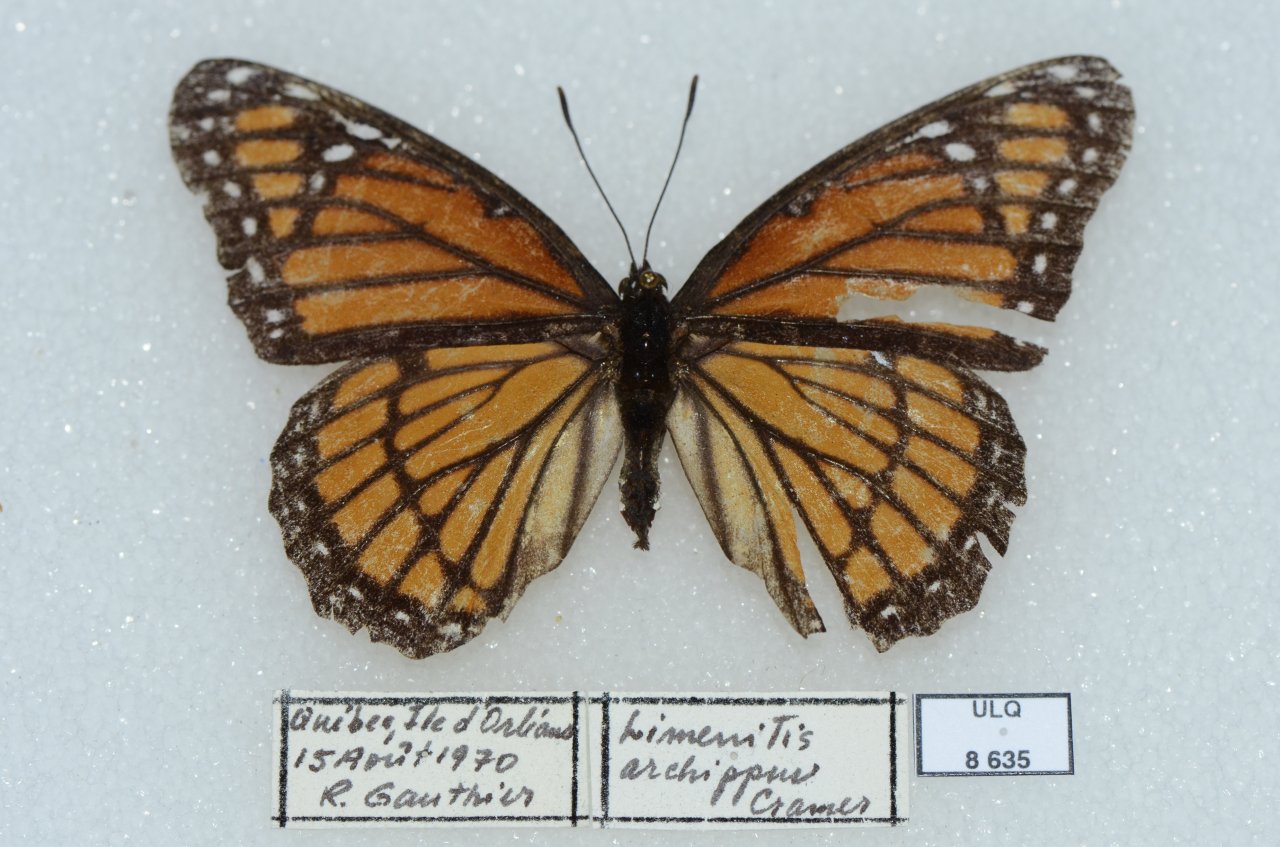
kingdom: Animalia
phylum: Arthropoda
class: Insecta
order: Lepidoptera
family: Nymphalidae
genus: Limenitis
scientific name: Limenitis archippus
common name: Viceroy
